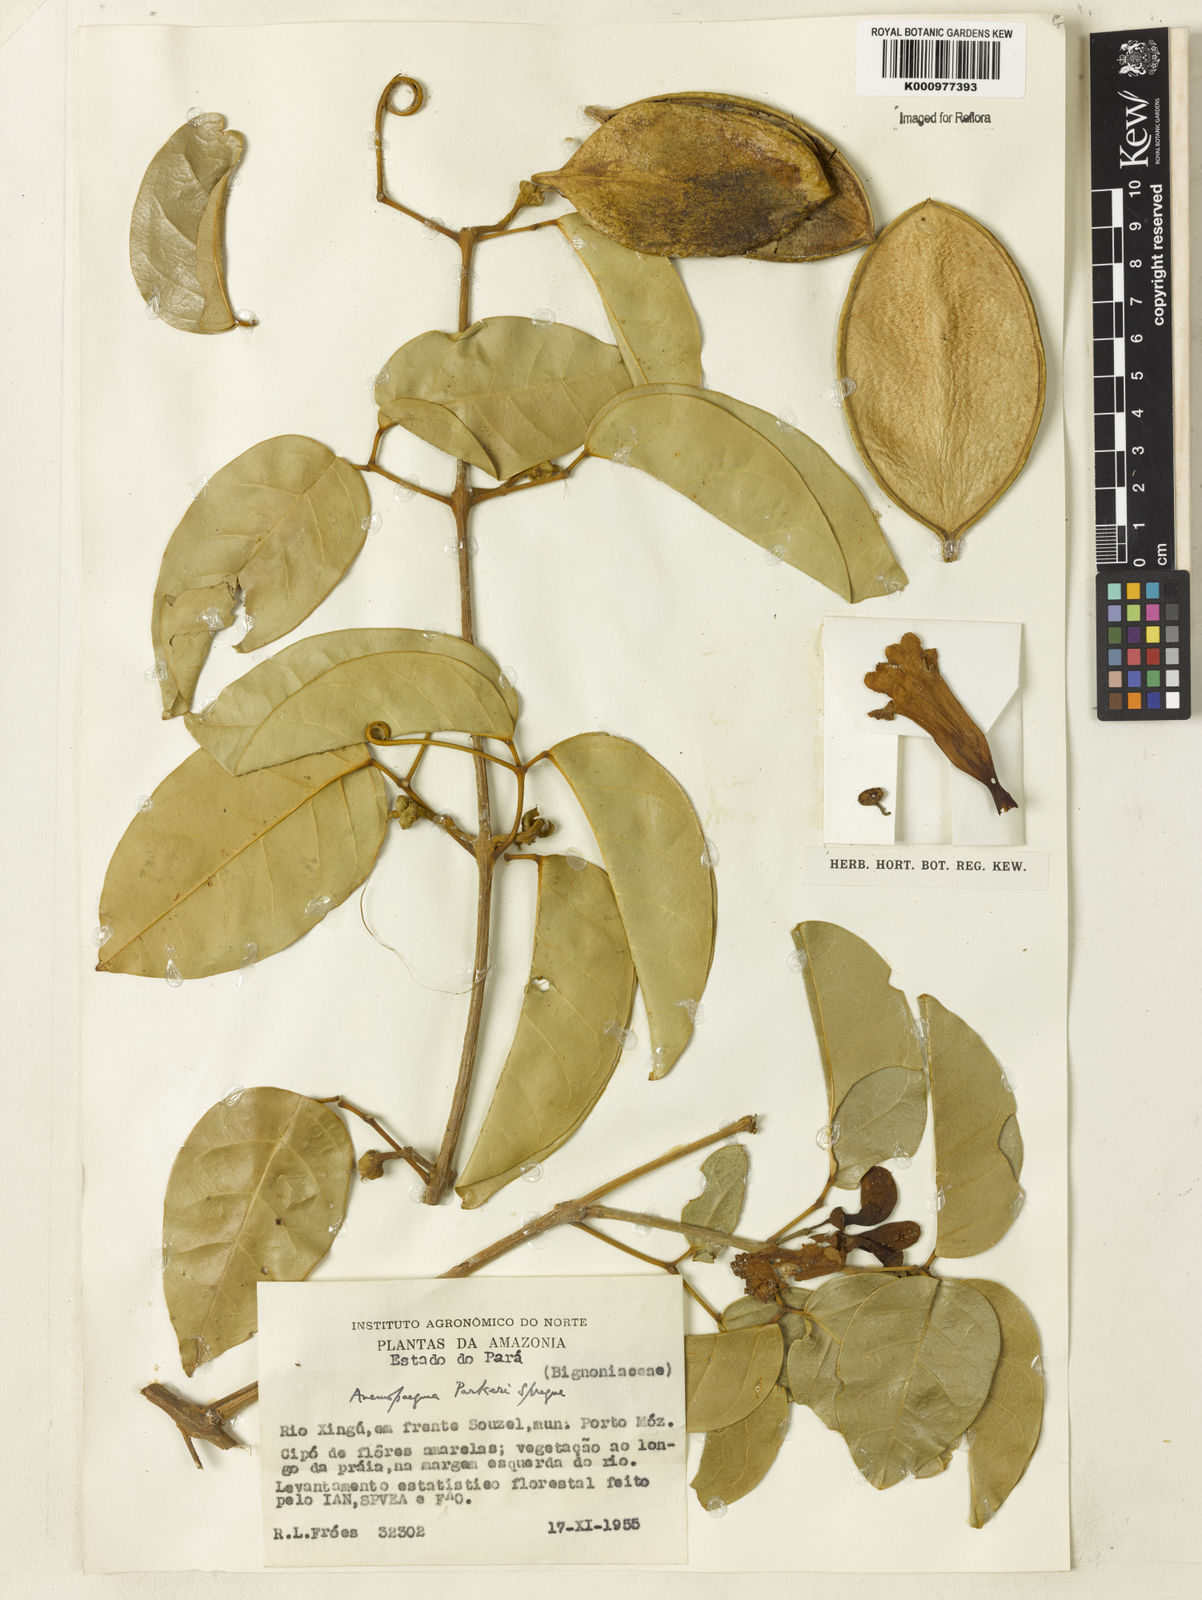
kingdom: Plantae
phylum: Tracheophyta
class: Magnoliopsida
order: Lamiales
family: Bignoniaceae
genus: Anemopaegma
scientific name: Anemopaegma parkeri
